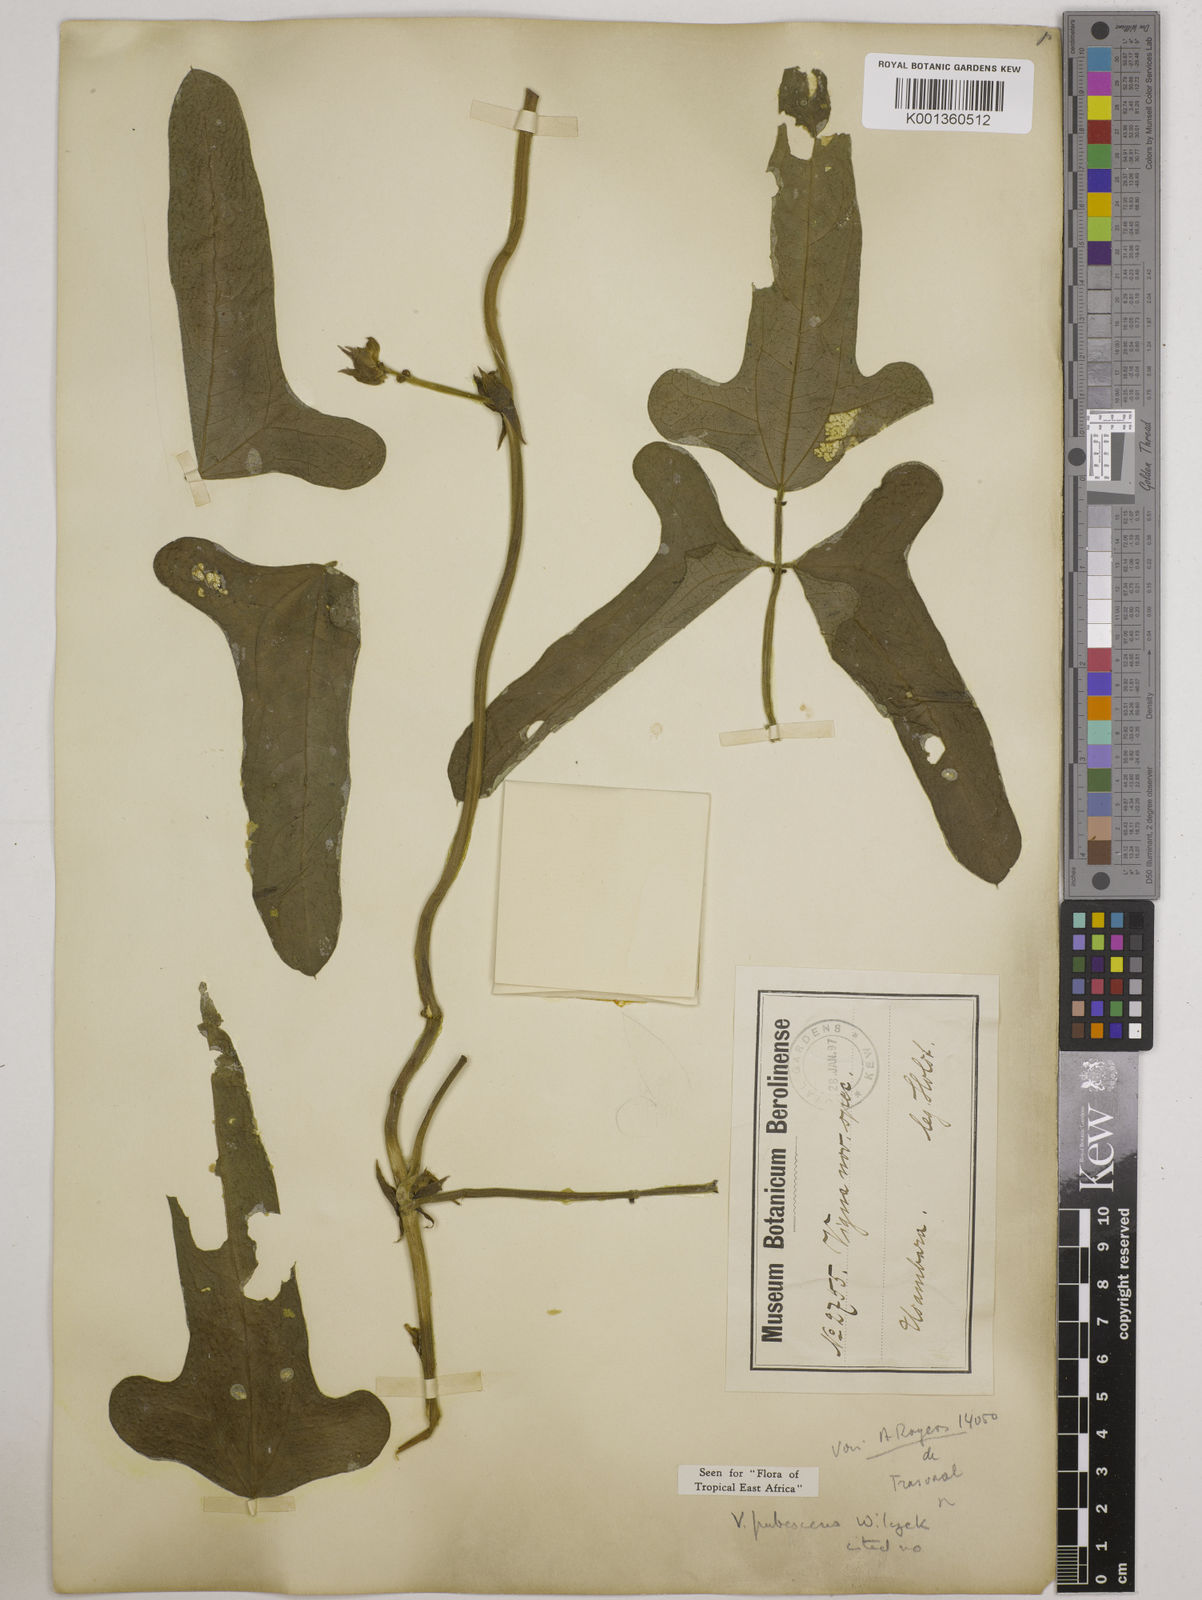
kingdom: Plantae
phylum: Tracheophyta
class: Magnoliopsida
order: Fabales
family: Fabaceae
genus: Vigna
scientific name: Vigna unguiculata
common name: Cowpea
